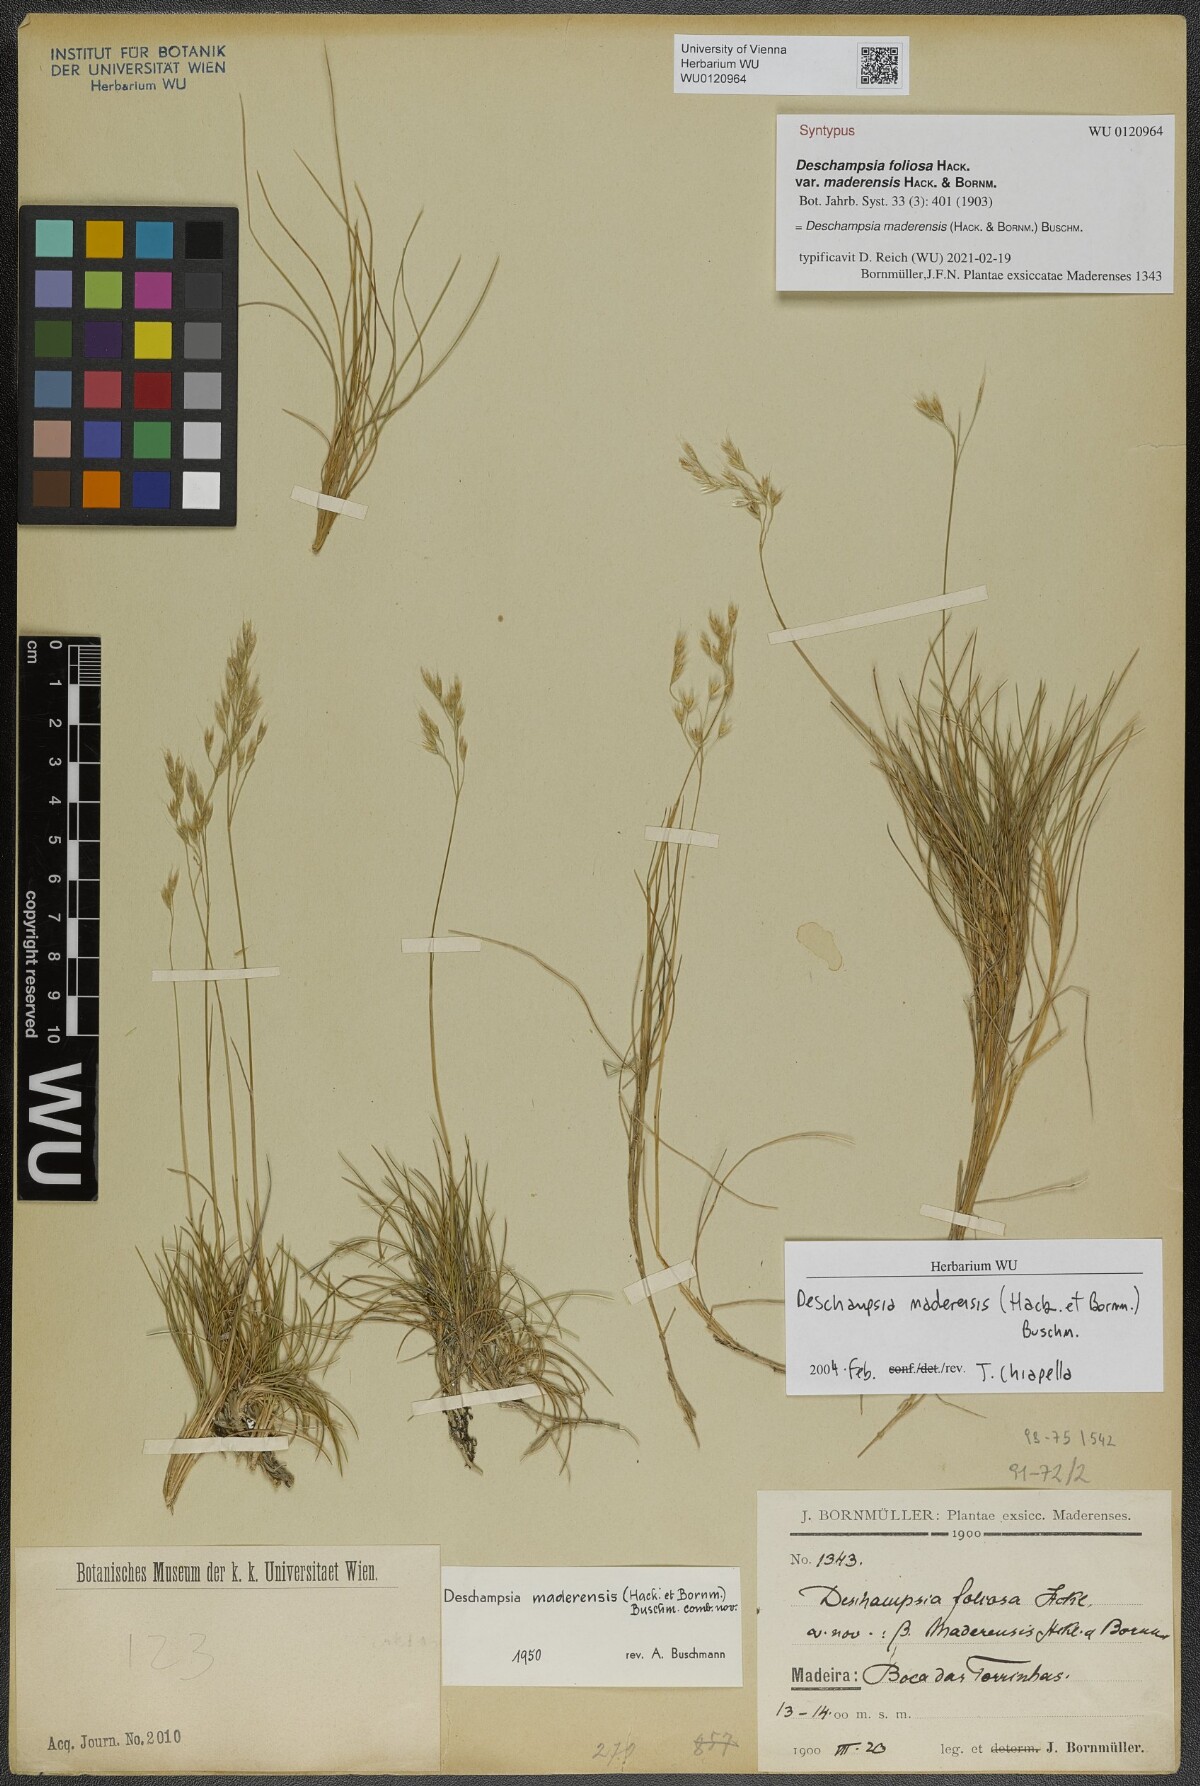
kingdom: Plantae
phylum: Tracheophyta
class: Liliopsida
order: Poales
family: Poaceae
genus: Avenella
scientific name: Avenella flexuosa
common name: Wavy hairgrass
